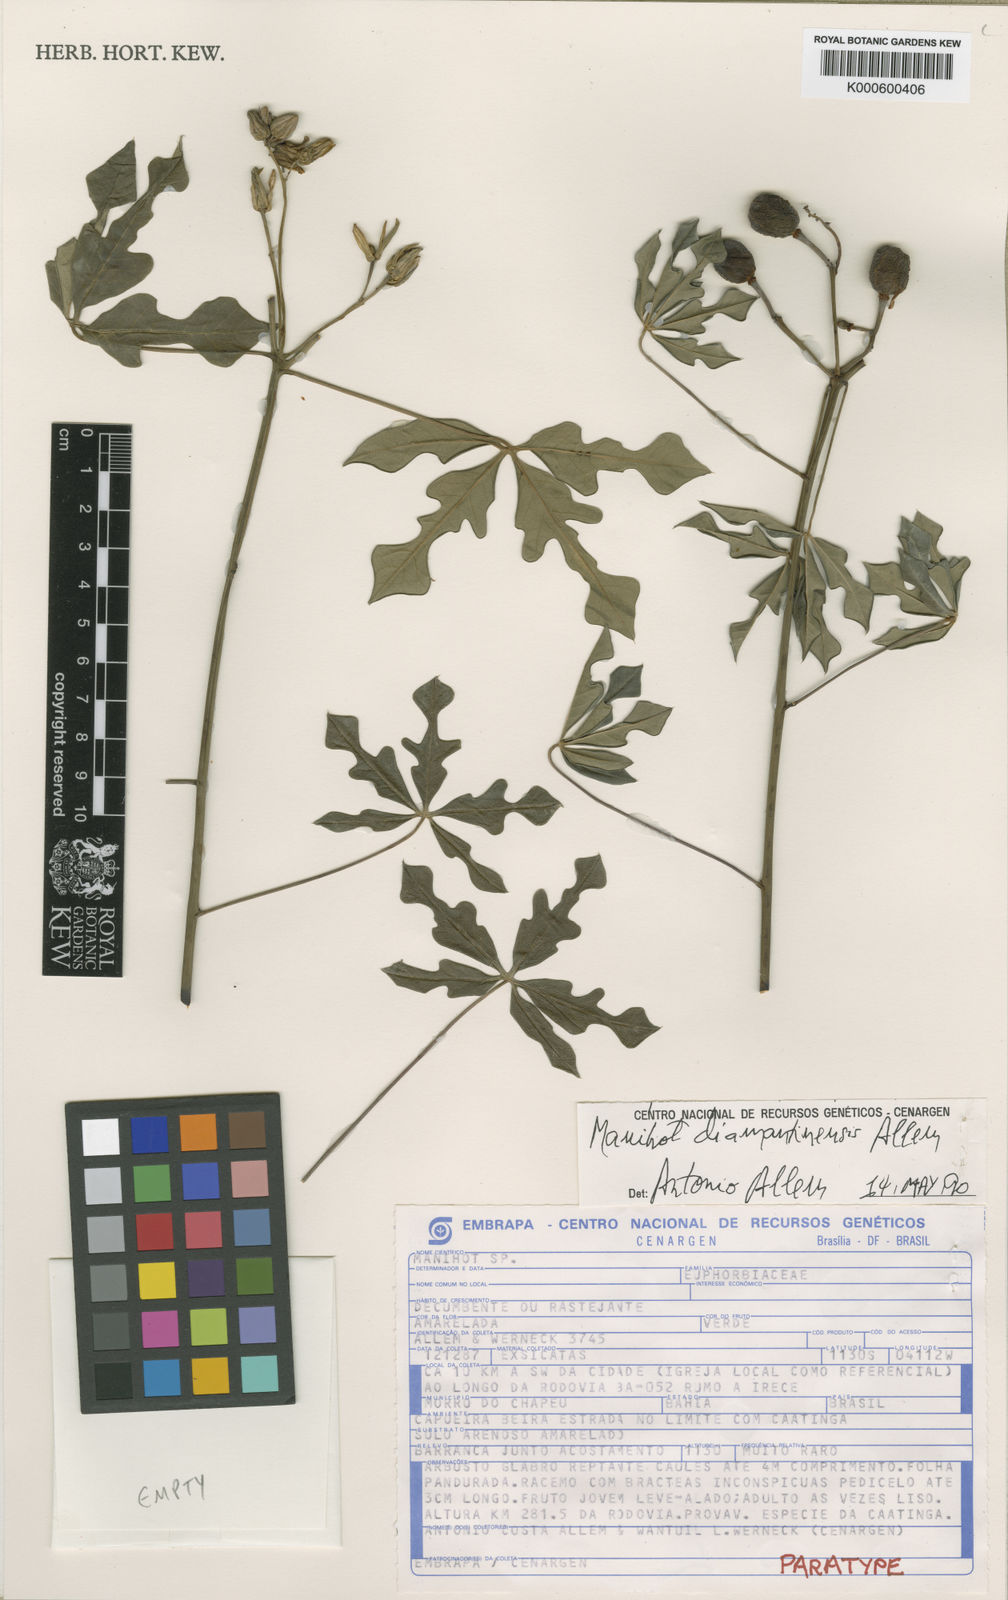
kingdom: Plantae
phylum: Tracheophyta
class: Magnoliopsida
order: Malpighiales
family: Euphorbiaceae
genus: Manihot
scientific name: Manihot diamantinensis
